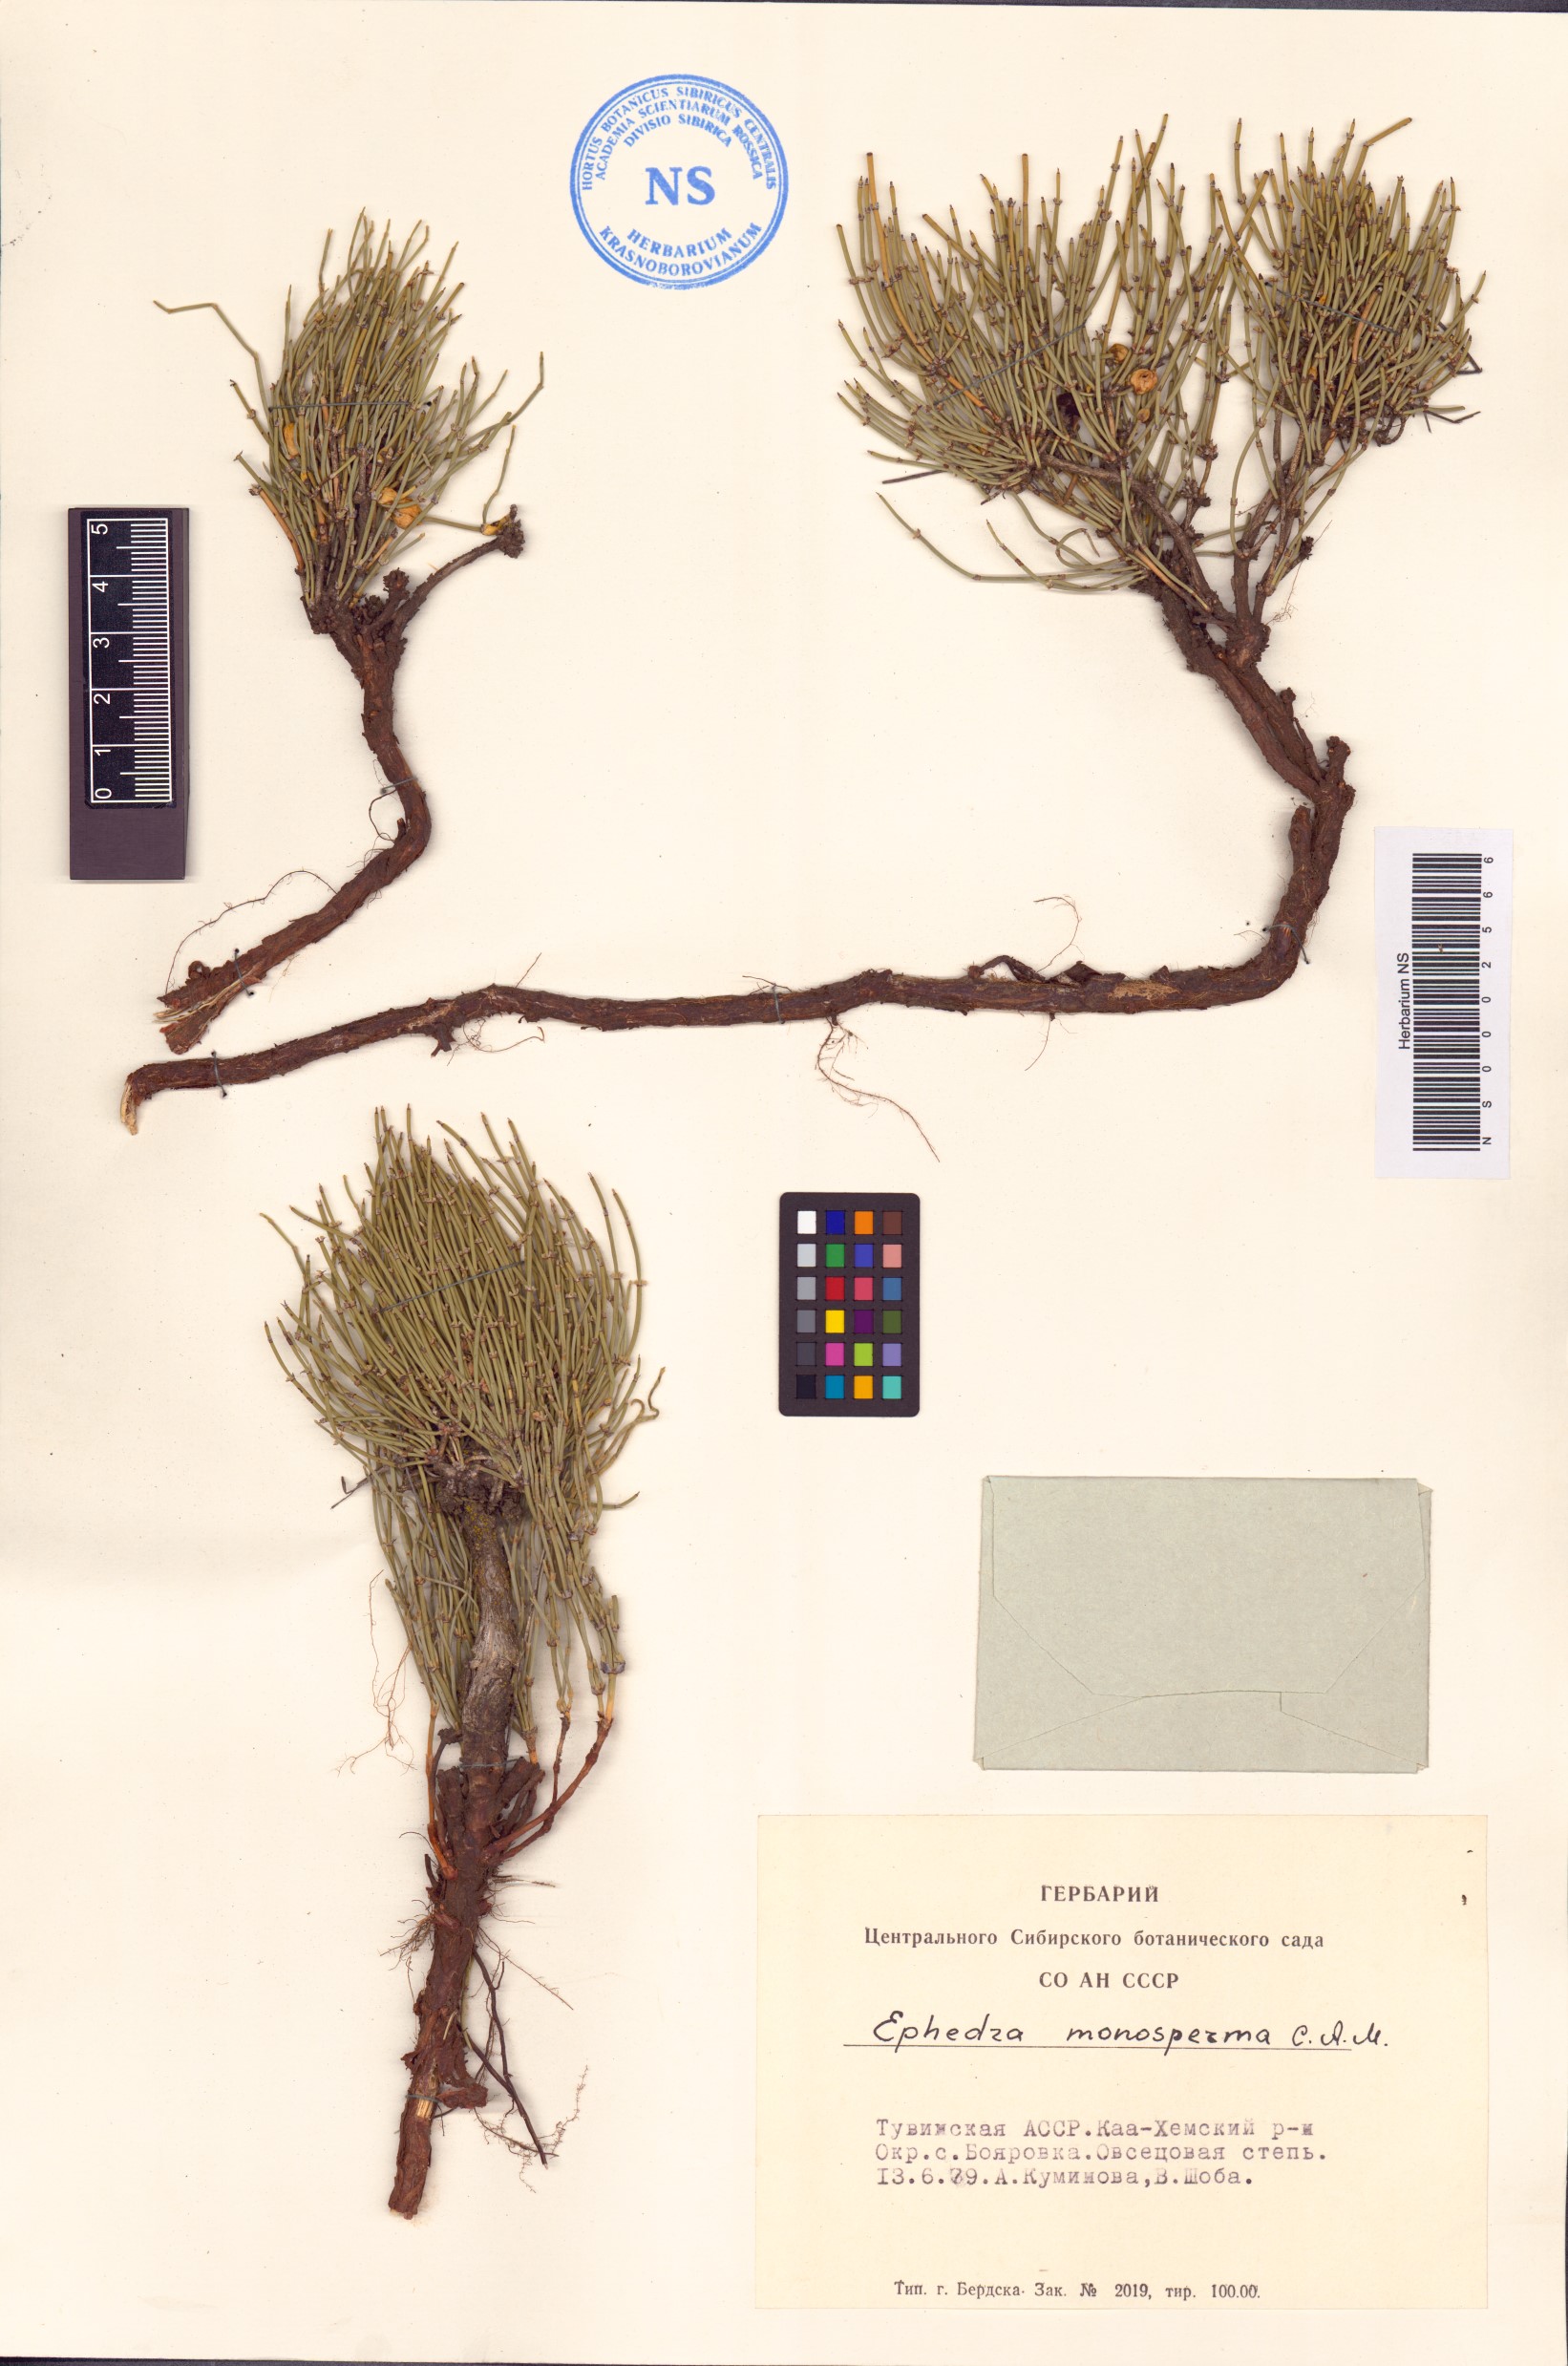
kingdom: Plantae
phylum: Tracheophyta
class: Gnetopsida
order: Ephedrales
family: Ephedraceae
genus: Ephedra
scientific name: Ephedra monosperma
